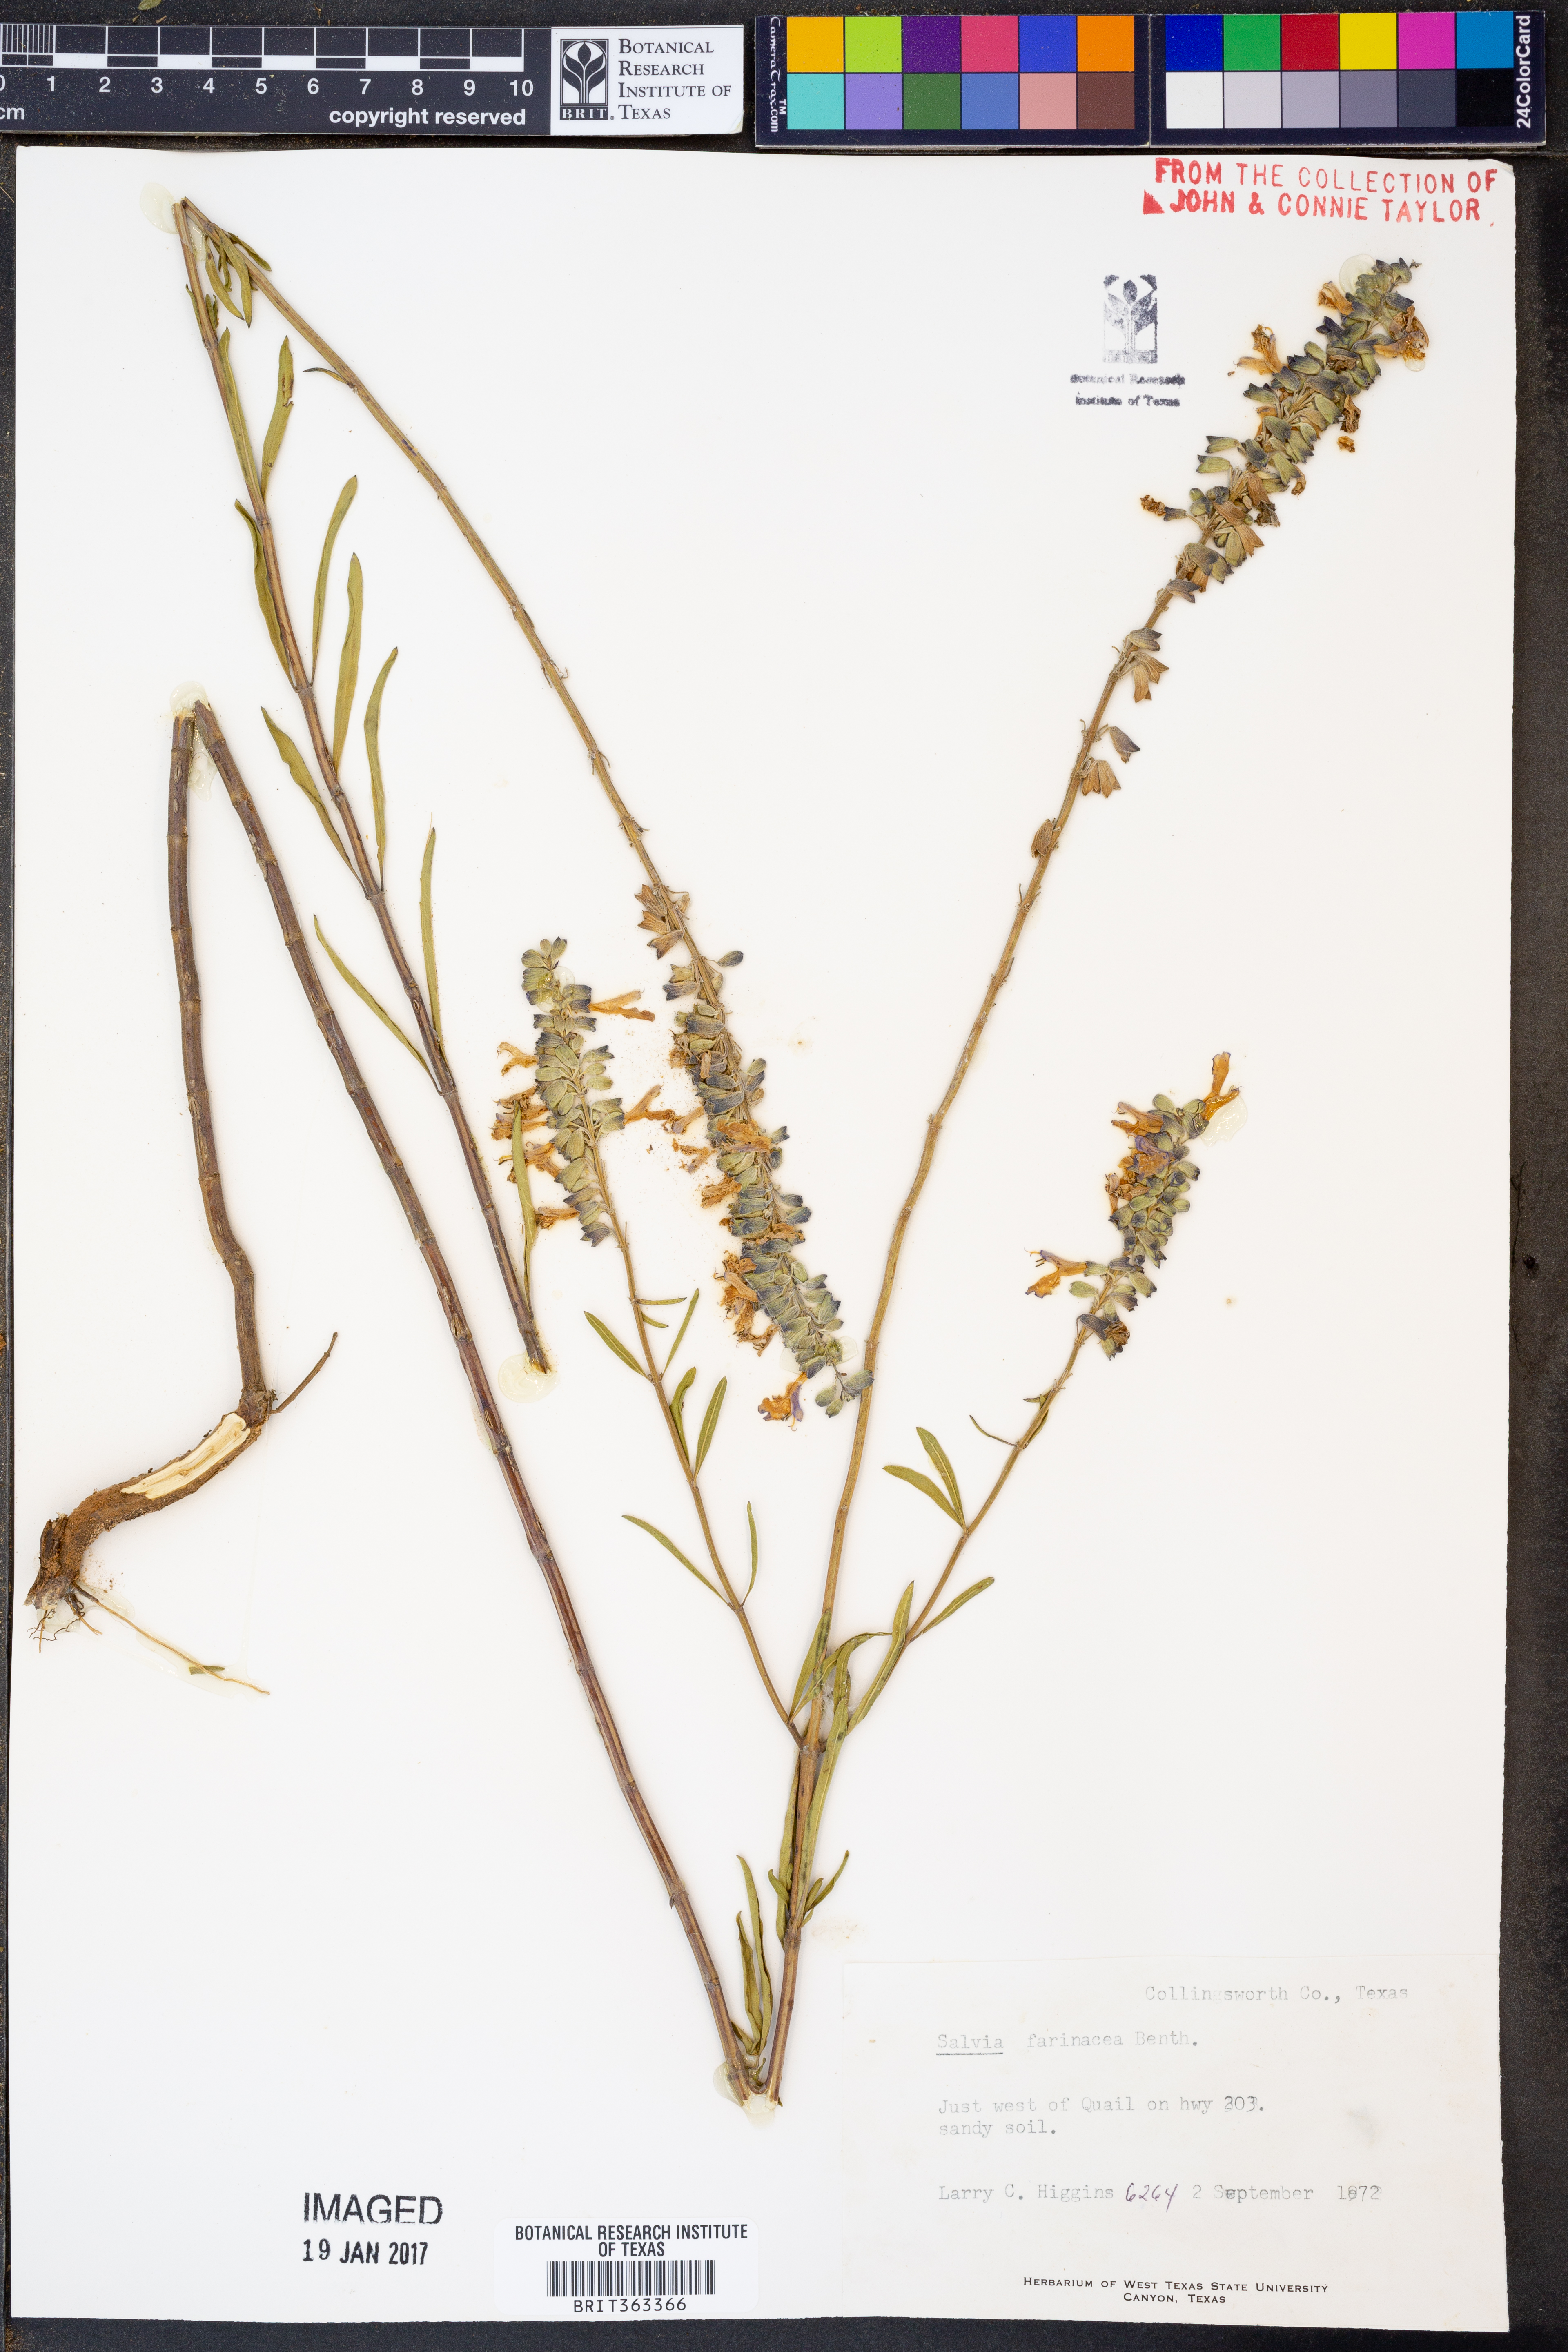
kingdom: Plantae
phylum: Tracheophyta
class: Magnoliopsida
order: Lamiales
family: Lamiaceae
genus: Salvia
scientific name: Salvia farinacea
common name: Mealy sage
